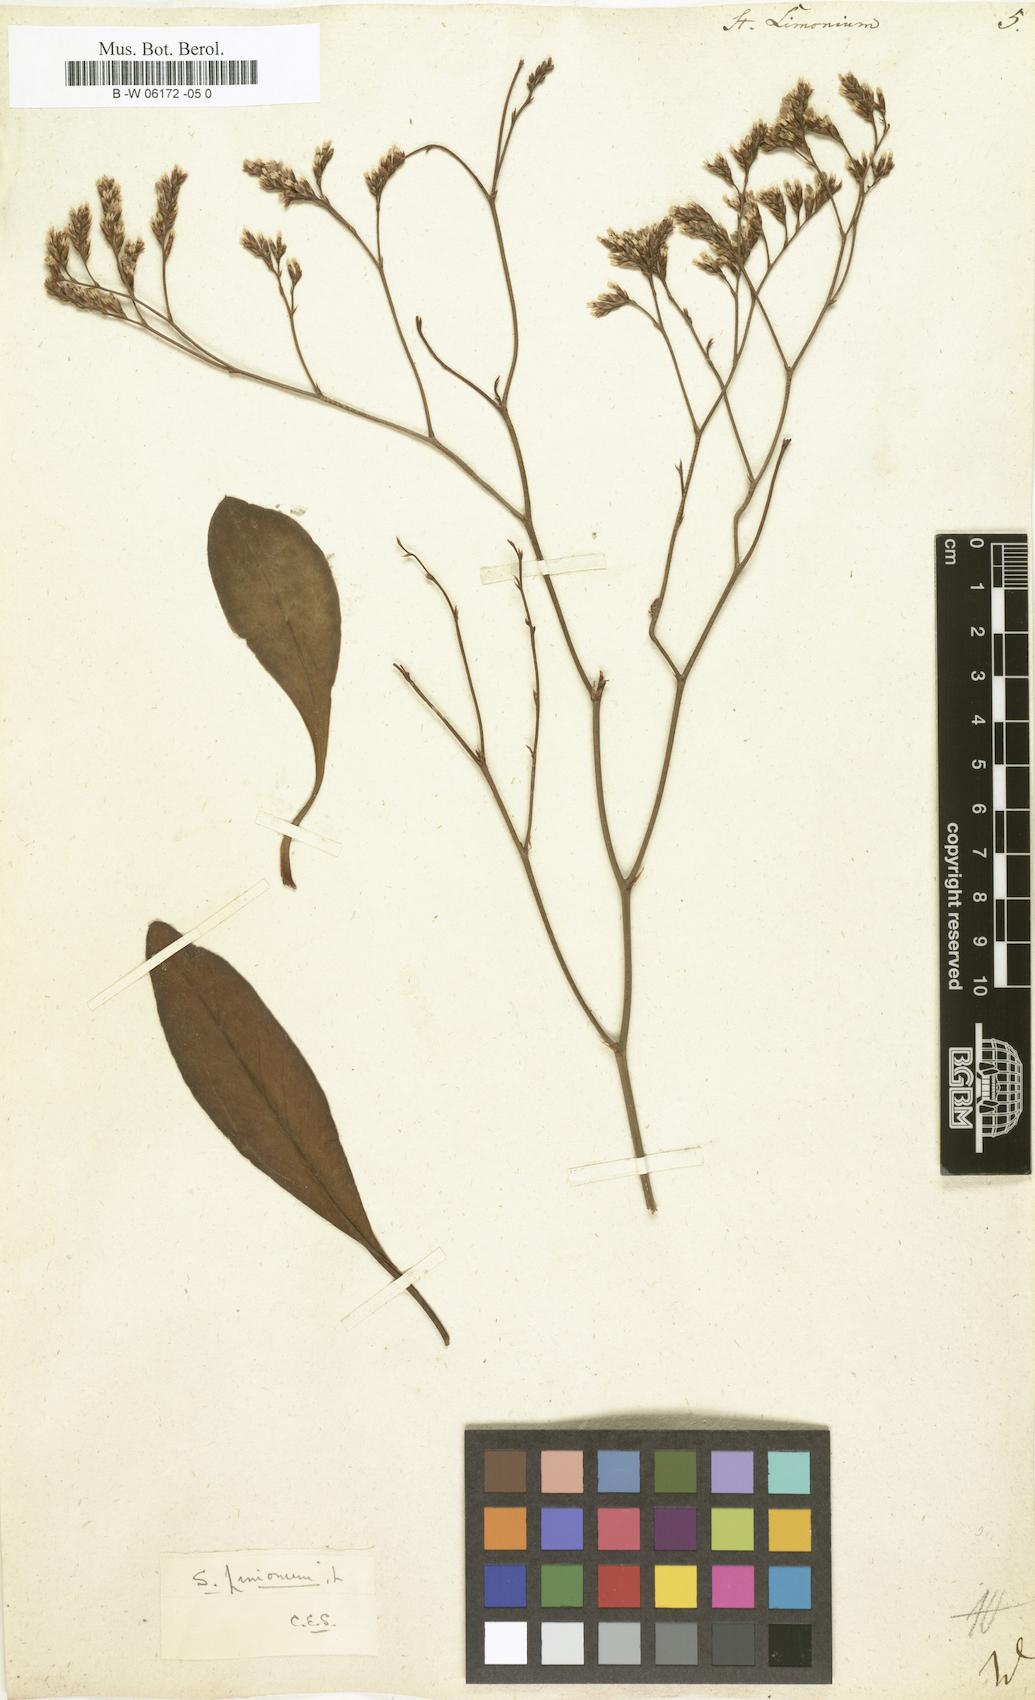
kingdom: Plantae
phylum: Tracheophyta
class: Magnoliopsida
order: Caryophyllales
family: Plumbaginaceae
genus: Limonium
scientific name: Limonium vulgare
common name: Common sea-lavender
